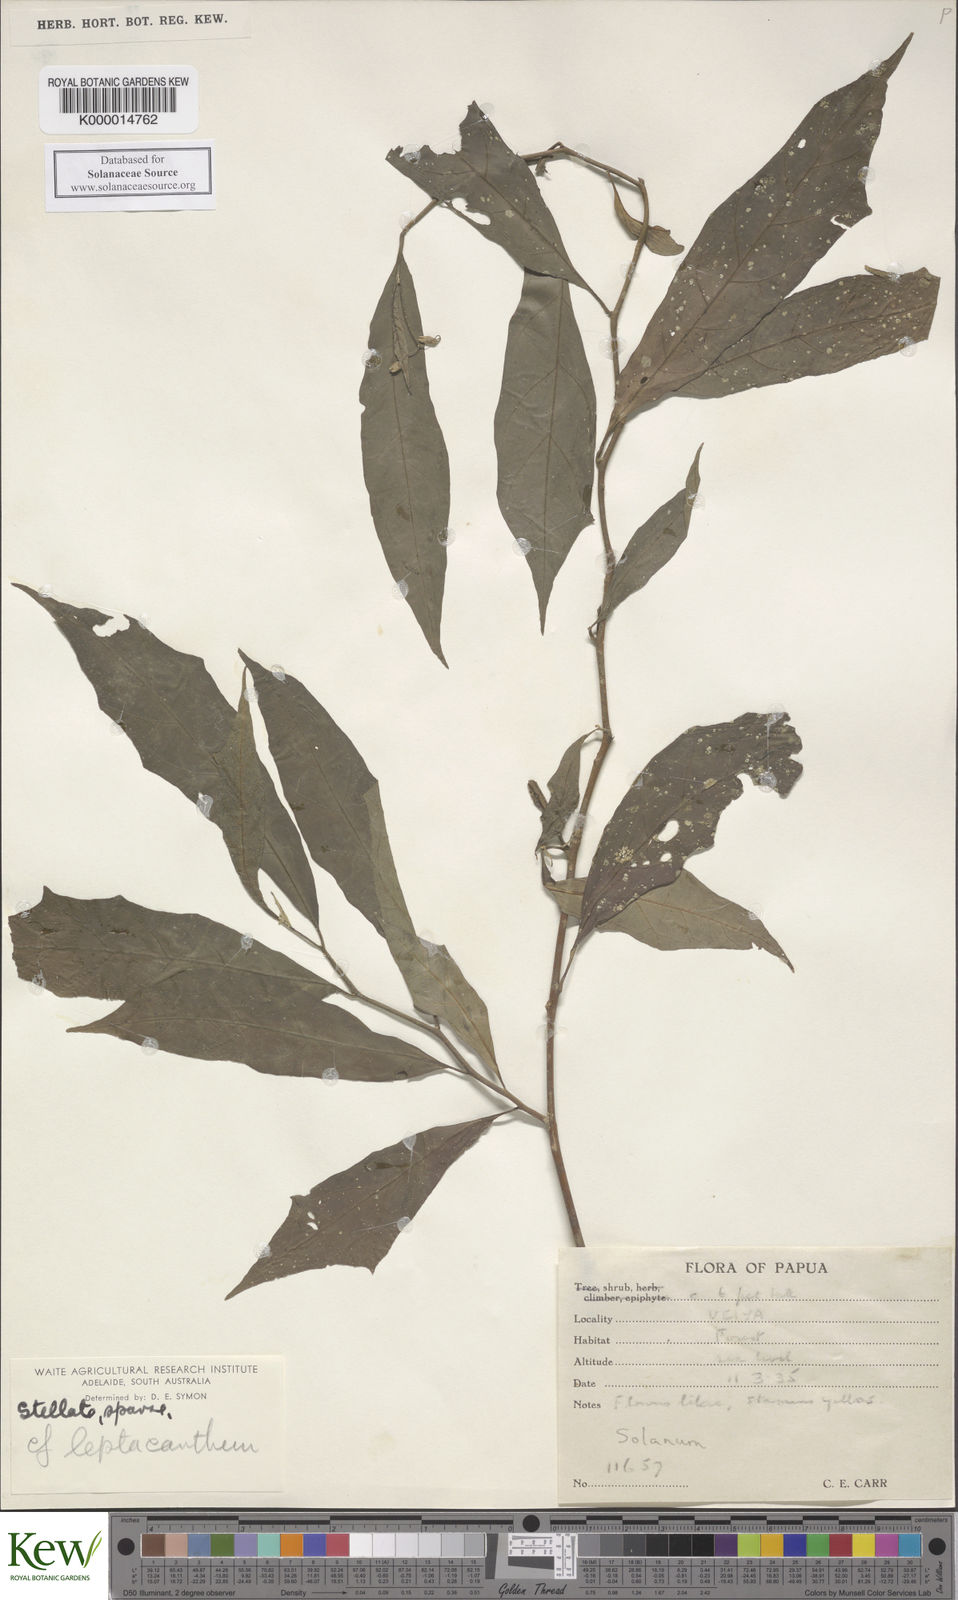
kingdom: Plantae
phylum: Tracheophyta
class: Magnoliopsida
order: Solanales
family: Solanaceae
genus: Solanum
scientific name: Solanum leptacanthum
